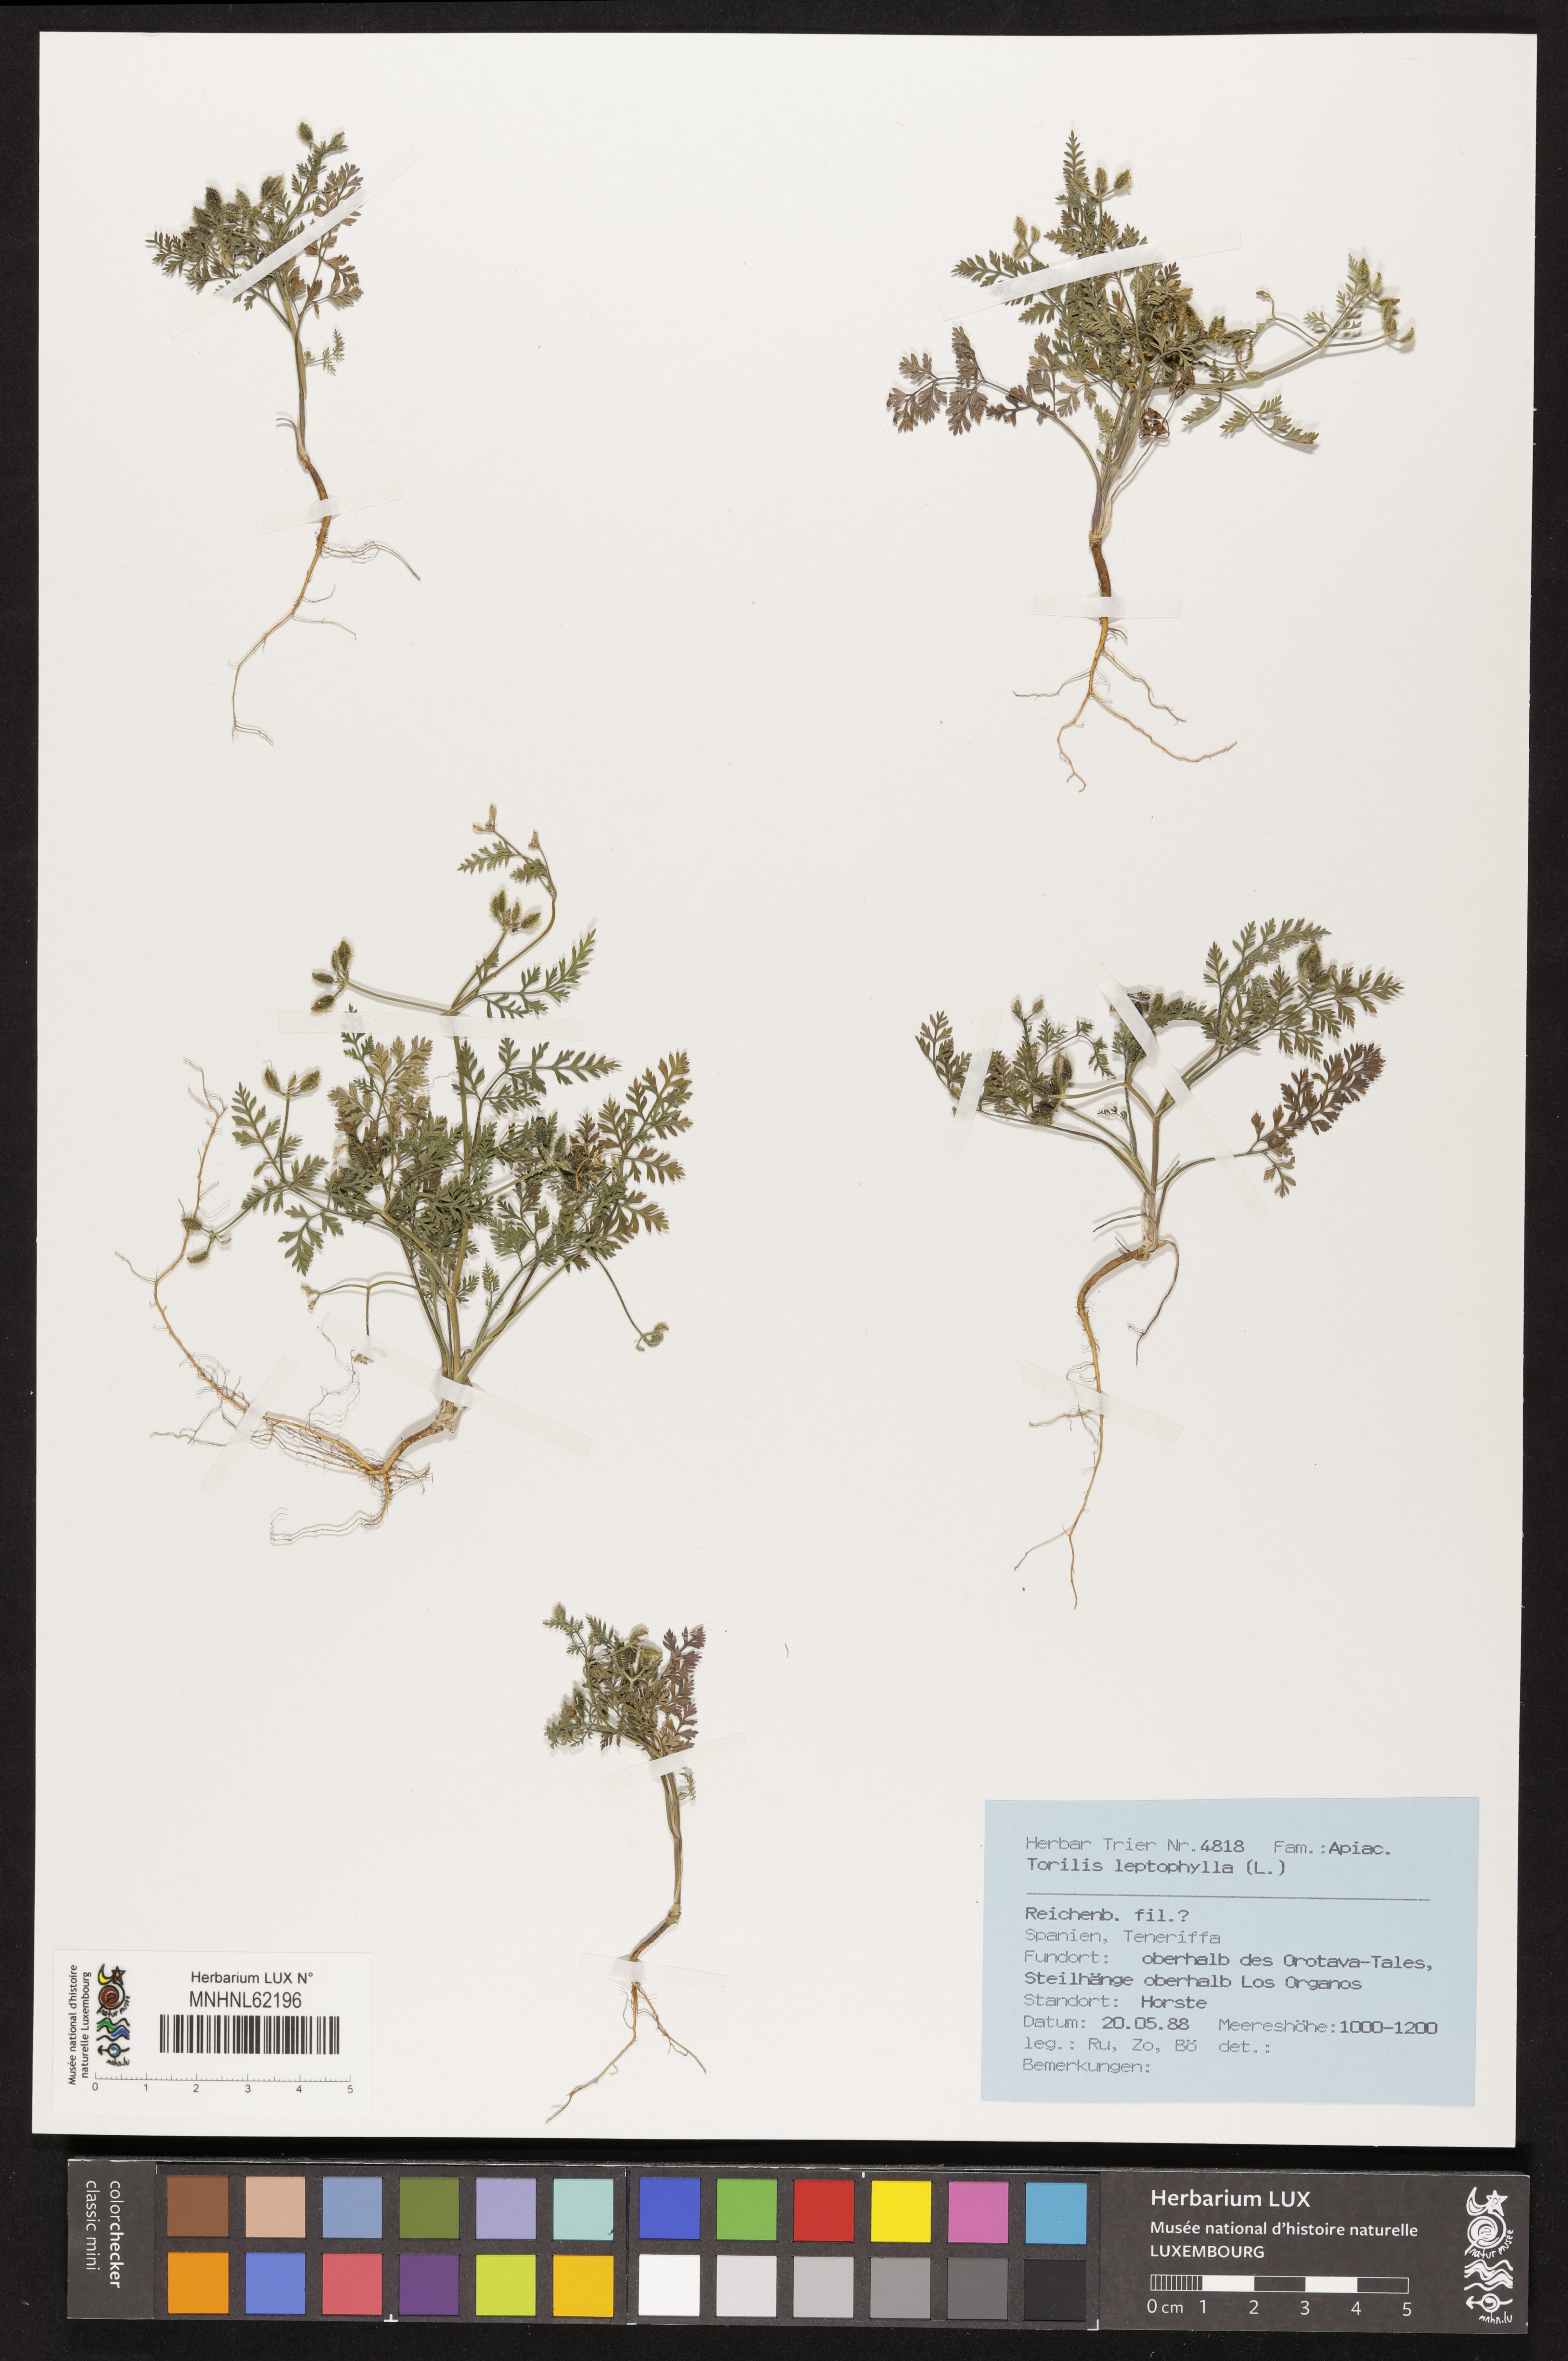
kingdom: Plantae
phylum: Tracheophyta
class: Magnoliopsida
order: Apiales
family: Apiaceae
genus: Torilis
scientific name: Torilis leptophylla
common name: Bristlefruit hedgeparsley
